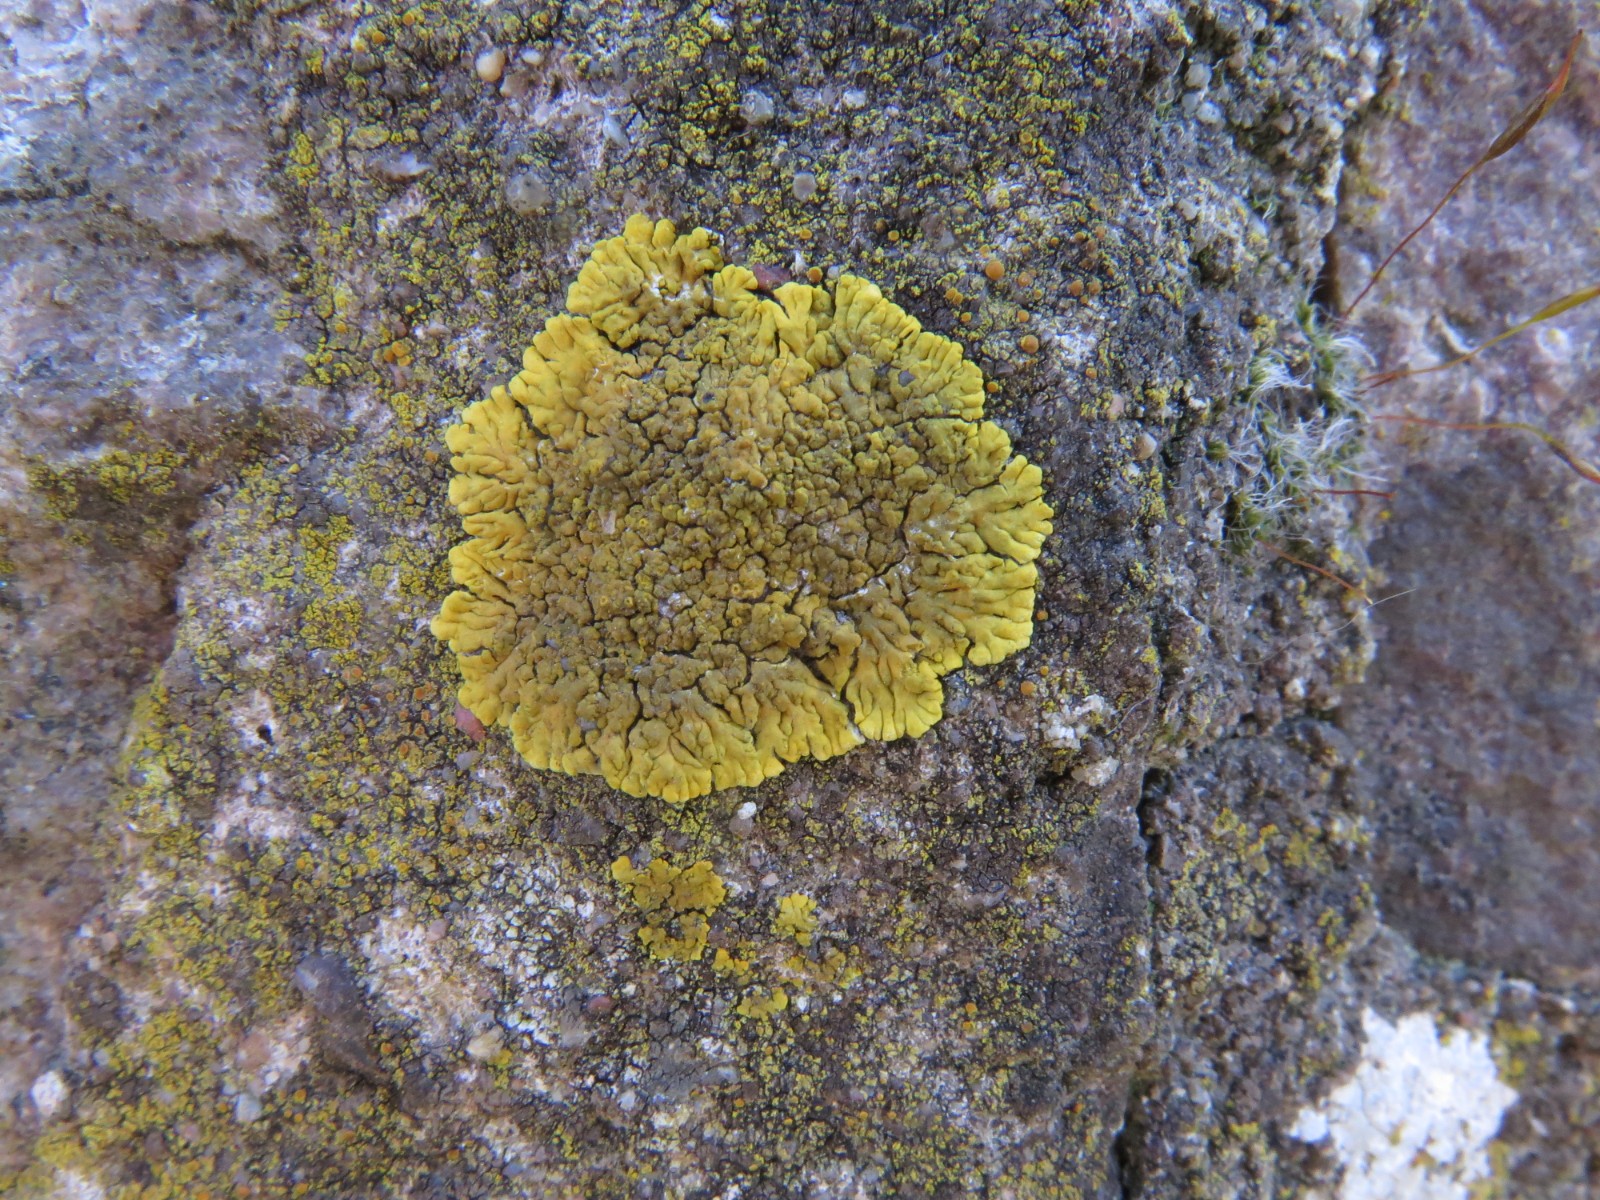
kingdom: Fungi
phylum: Ascomycota
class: Lecanoromycetes
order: Teloschistales
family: Teloschistaceae
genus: Variospora
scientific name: Variospora flavescens
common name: kalk-orangelav
